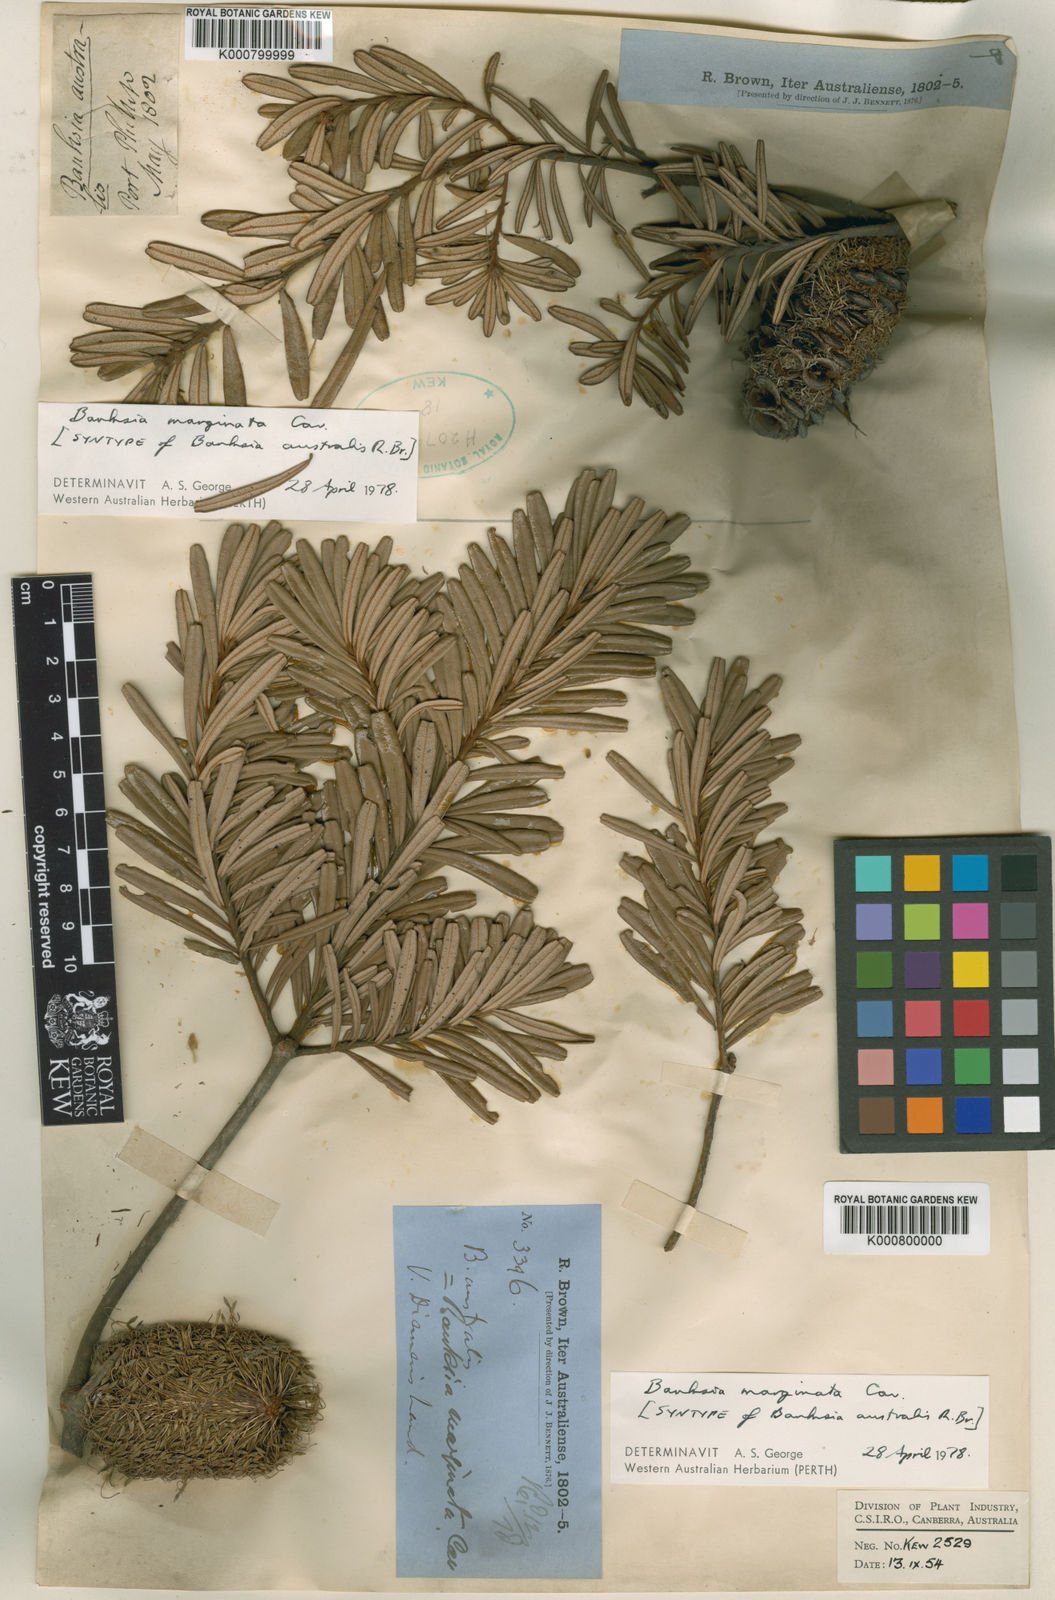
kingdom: Plantae
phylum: Tracheophyta
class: Magnoliopsida
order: Proteales
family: Proteaceae
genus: Banksia
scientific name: Banksia marginata
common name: Silver banksia
